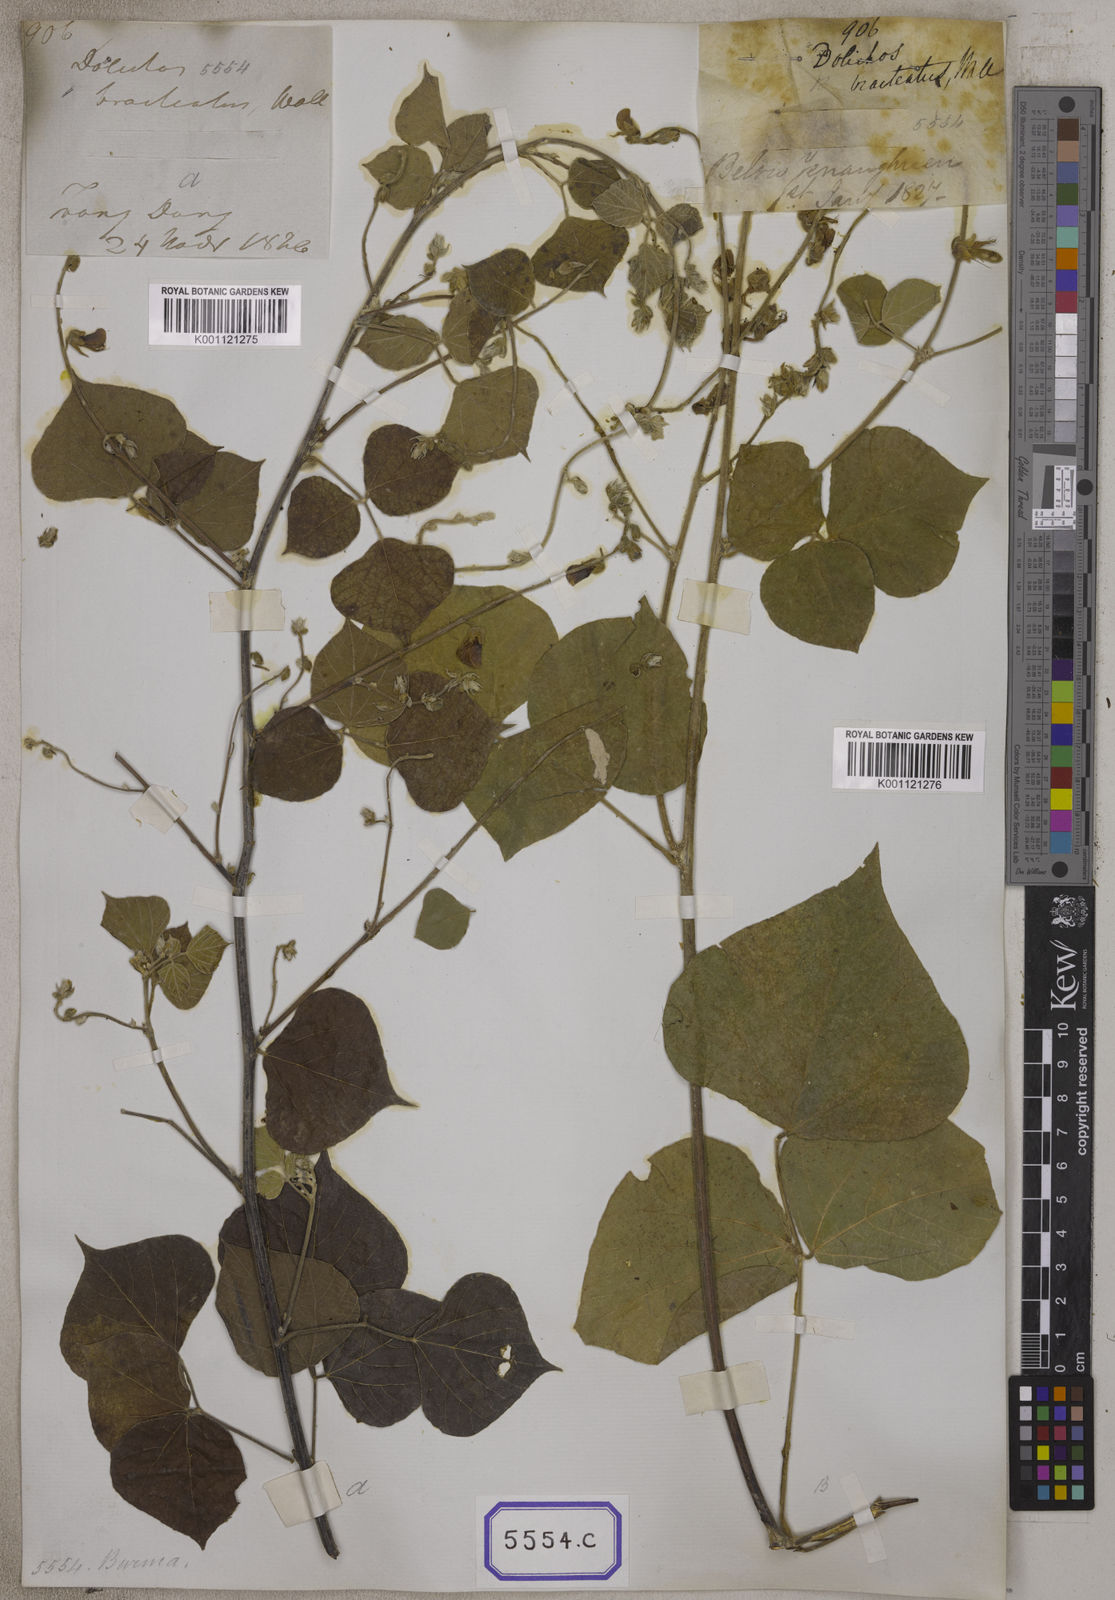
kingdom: Plantae
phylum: Tracheophyta
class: Magnoliopsida
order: Fabales
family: Fabaceae
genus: Rhynchosia
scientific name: Rhynchosia bracteata
